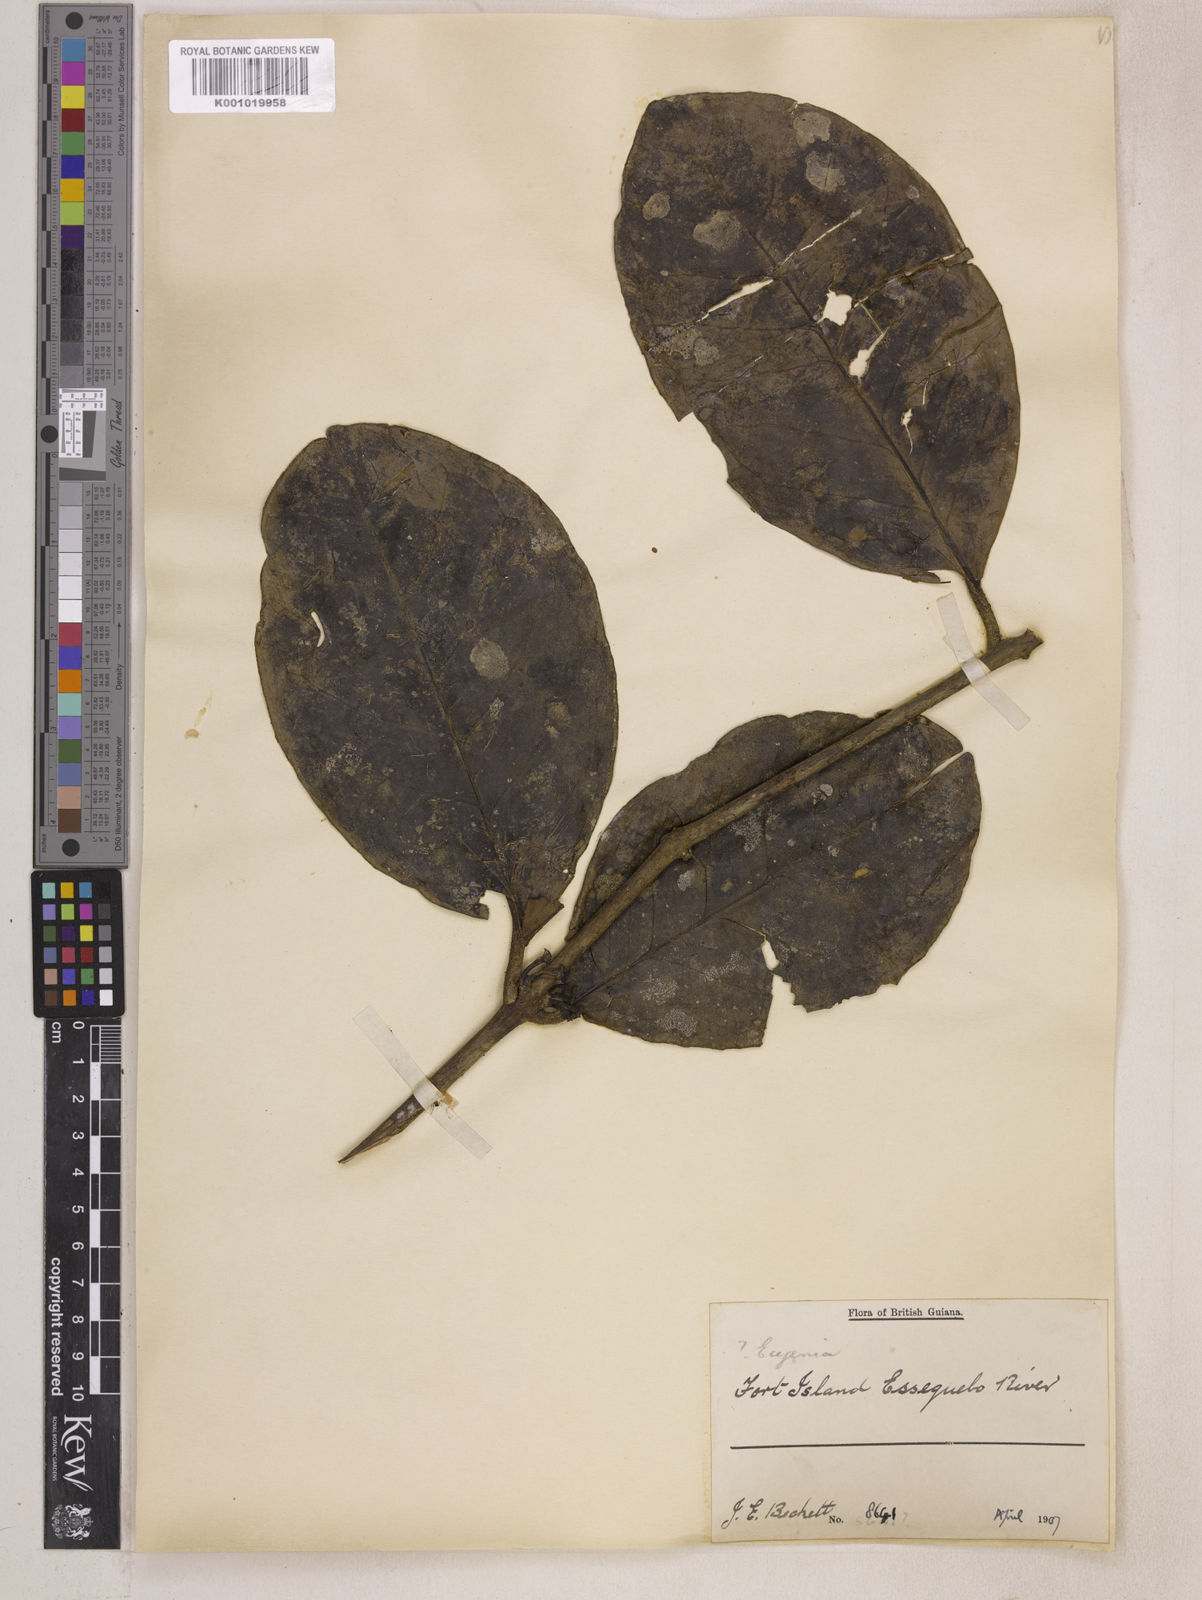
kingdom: Plantae
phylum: Tracheophyta
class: Magnoliopsida
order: Myrtales
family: Myrtaceae
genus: Eugenia
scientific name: Eugenia latifolia
